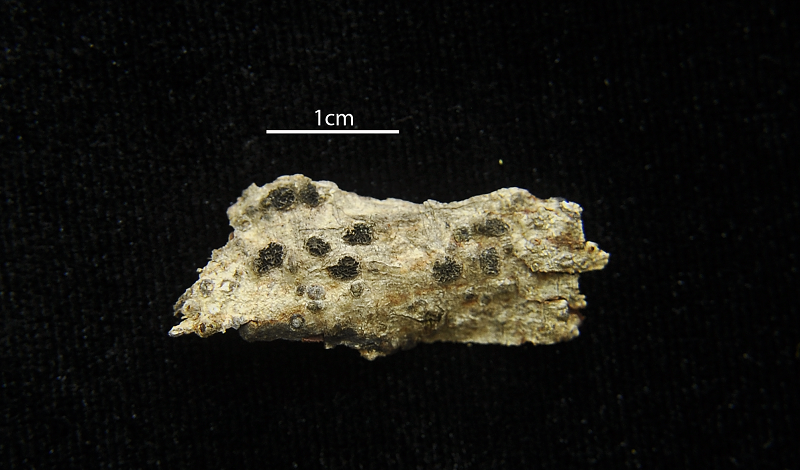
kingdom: Fungi
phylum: Ascomycota
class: Lecanoromycetes
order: Ostropales
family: Graphidaceae
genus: Glyphis
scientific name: Glyphis cicatricosa
